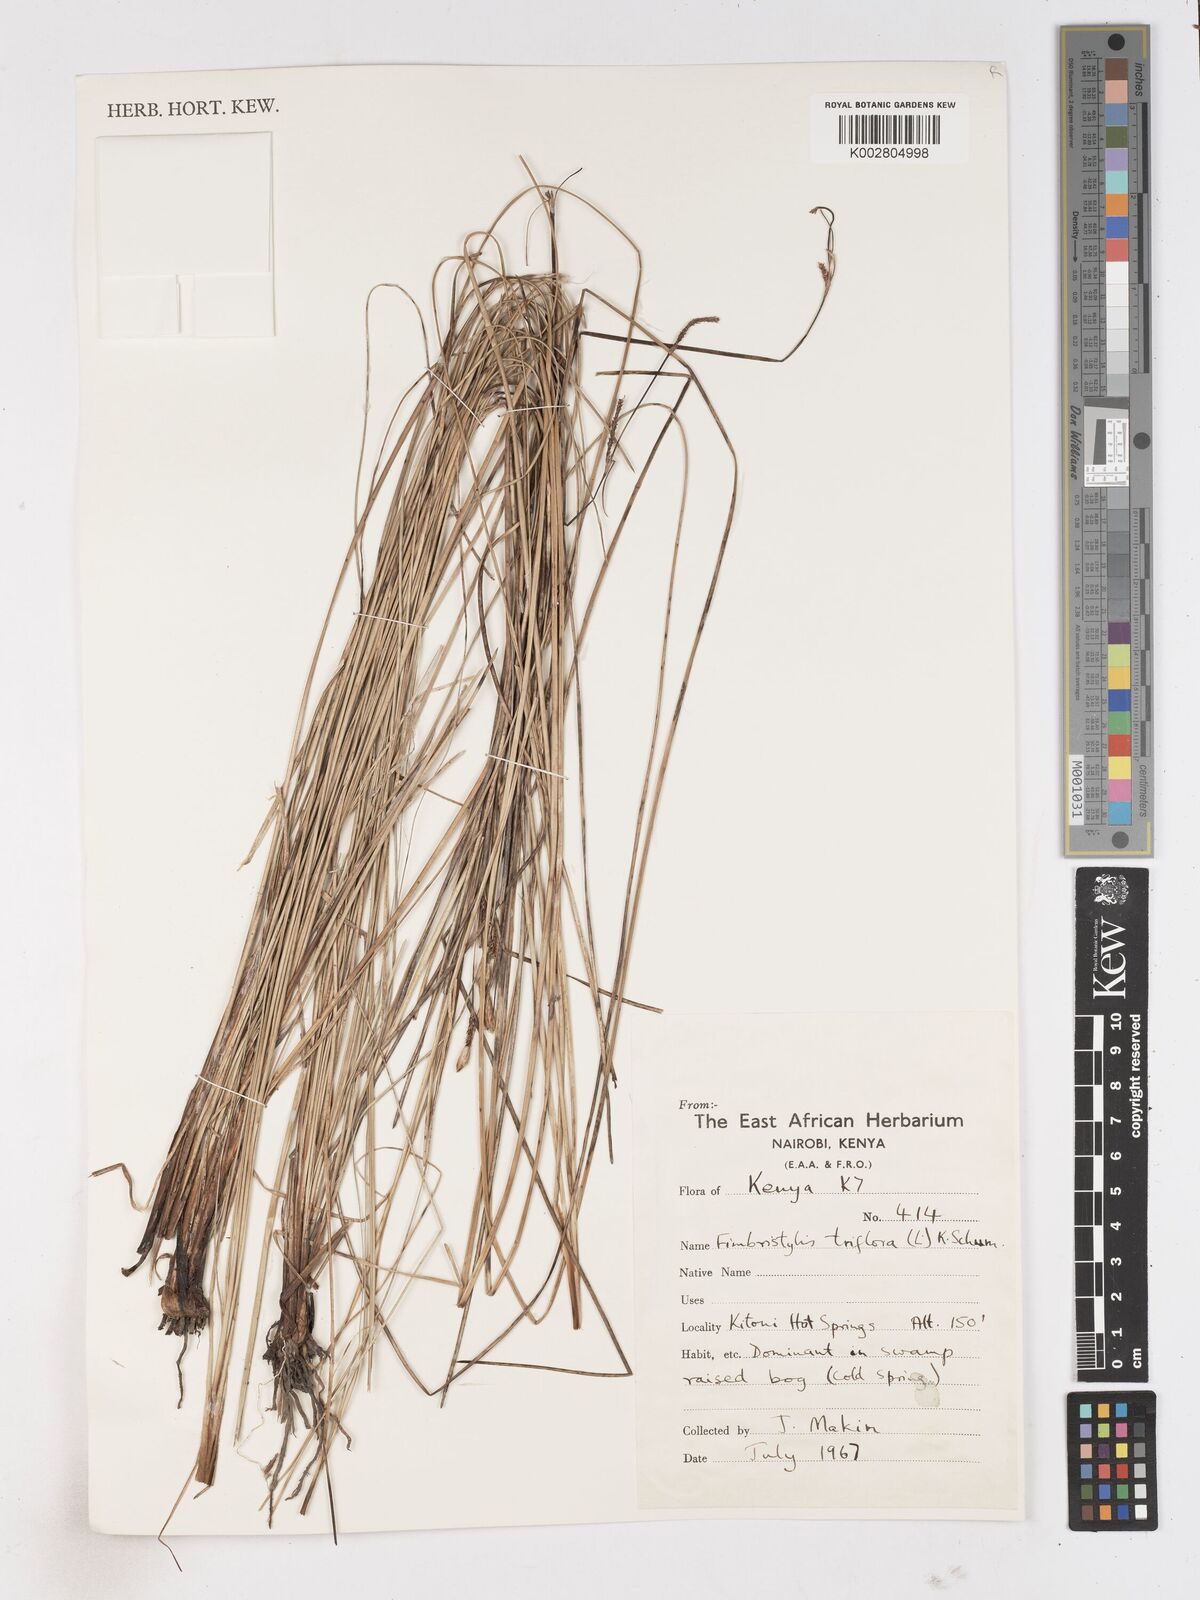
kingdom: Plantae
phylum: Tracheophyta
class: Liliopsida
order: Poales
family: Cyperaceae
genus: Abildgaardia
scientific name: Abildgaardia triflora
